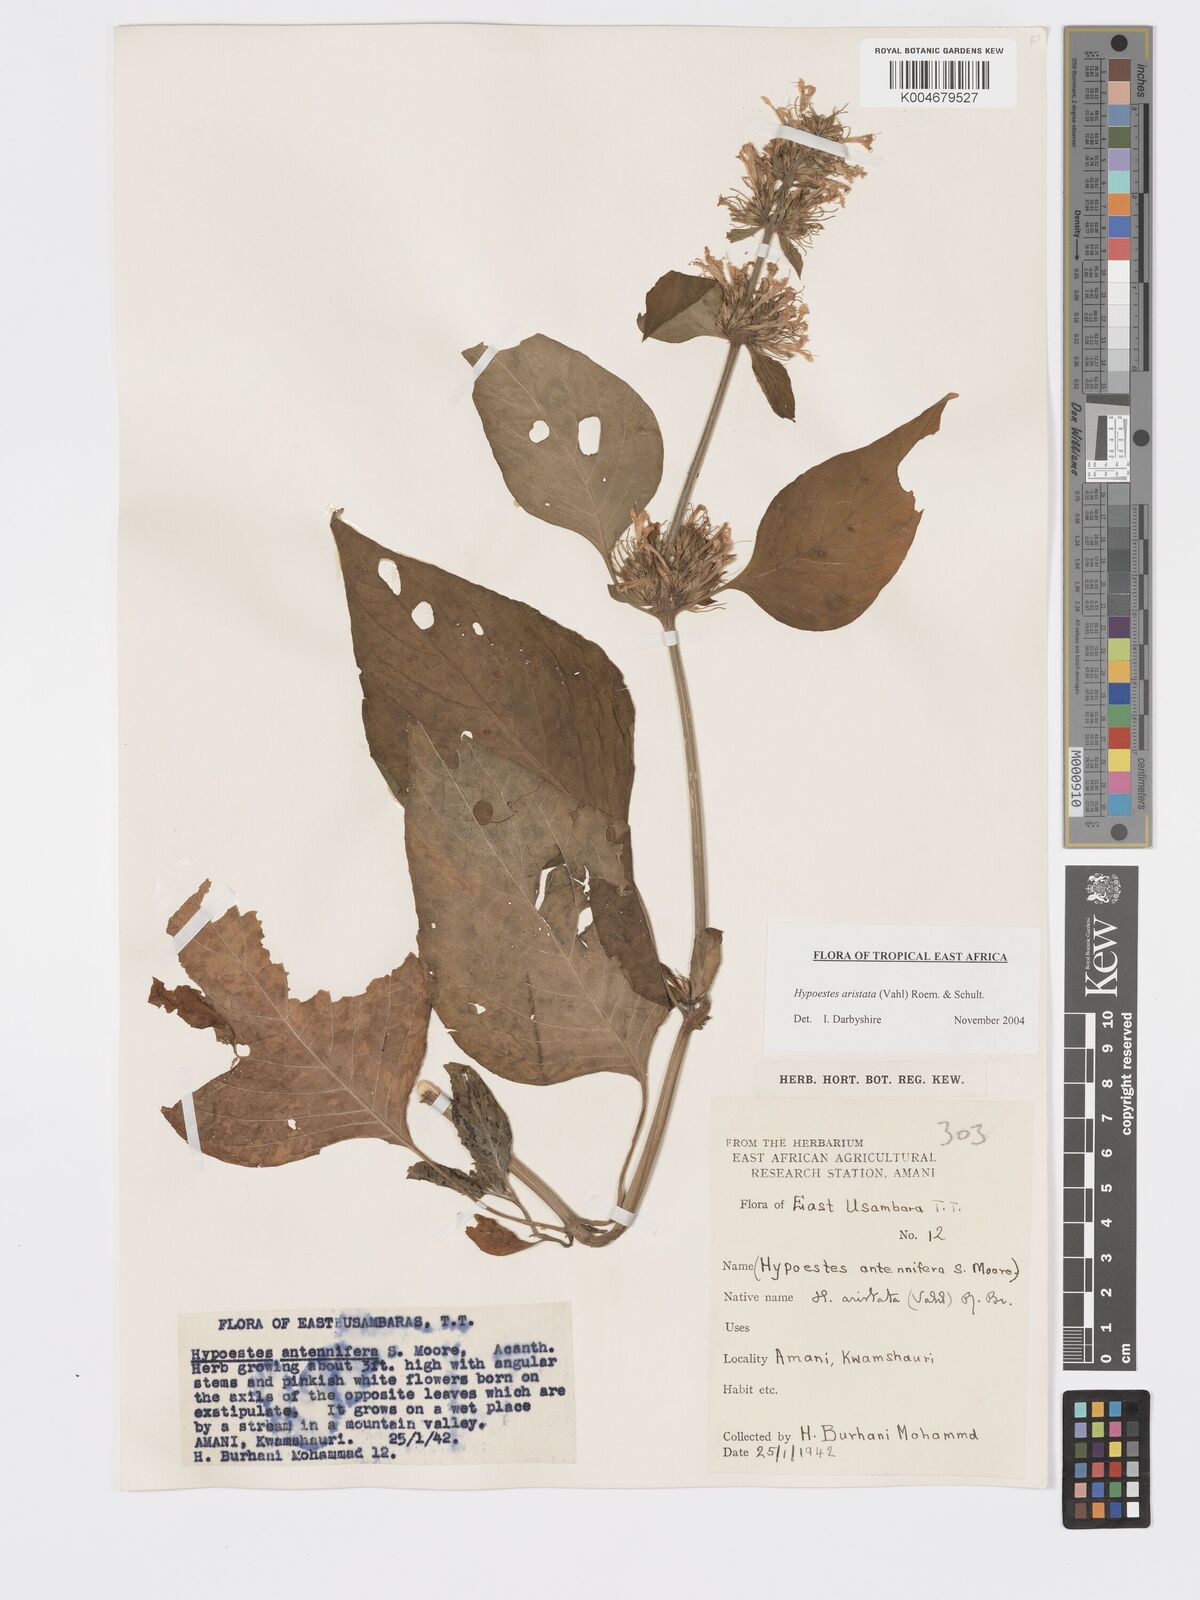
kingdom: Plantae
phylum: Tracheophyta
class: Magnoliopsida
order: Lamiales
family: Acanthaceae
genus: Hypoestes
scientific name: Hypoestes aristata
